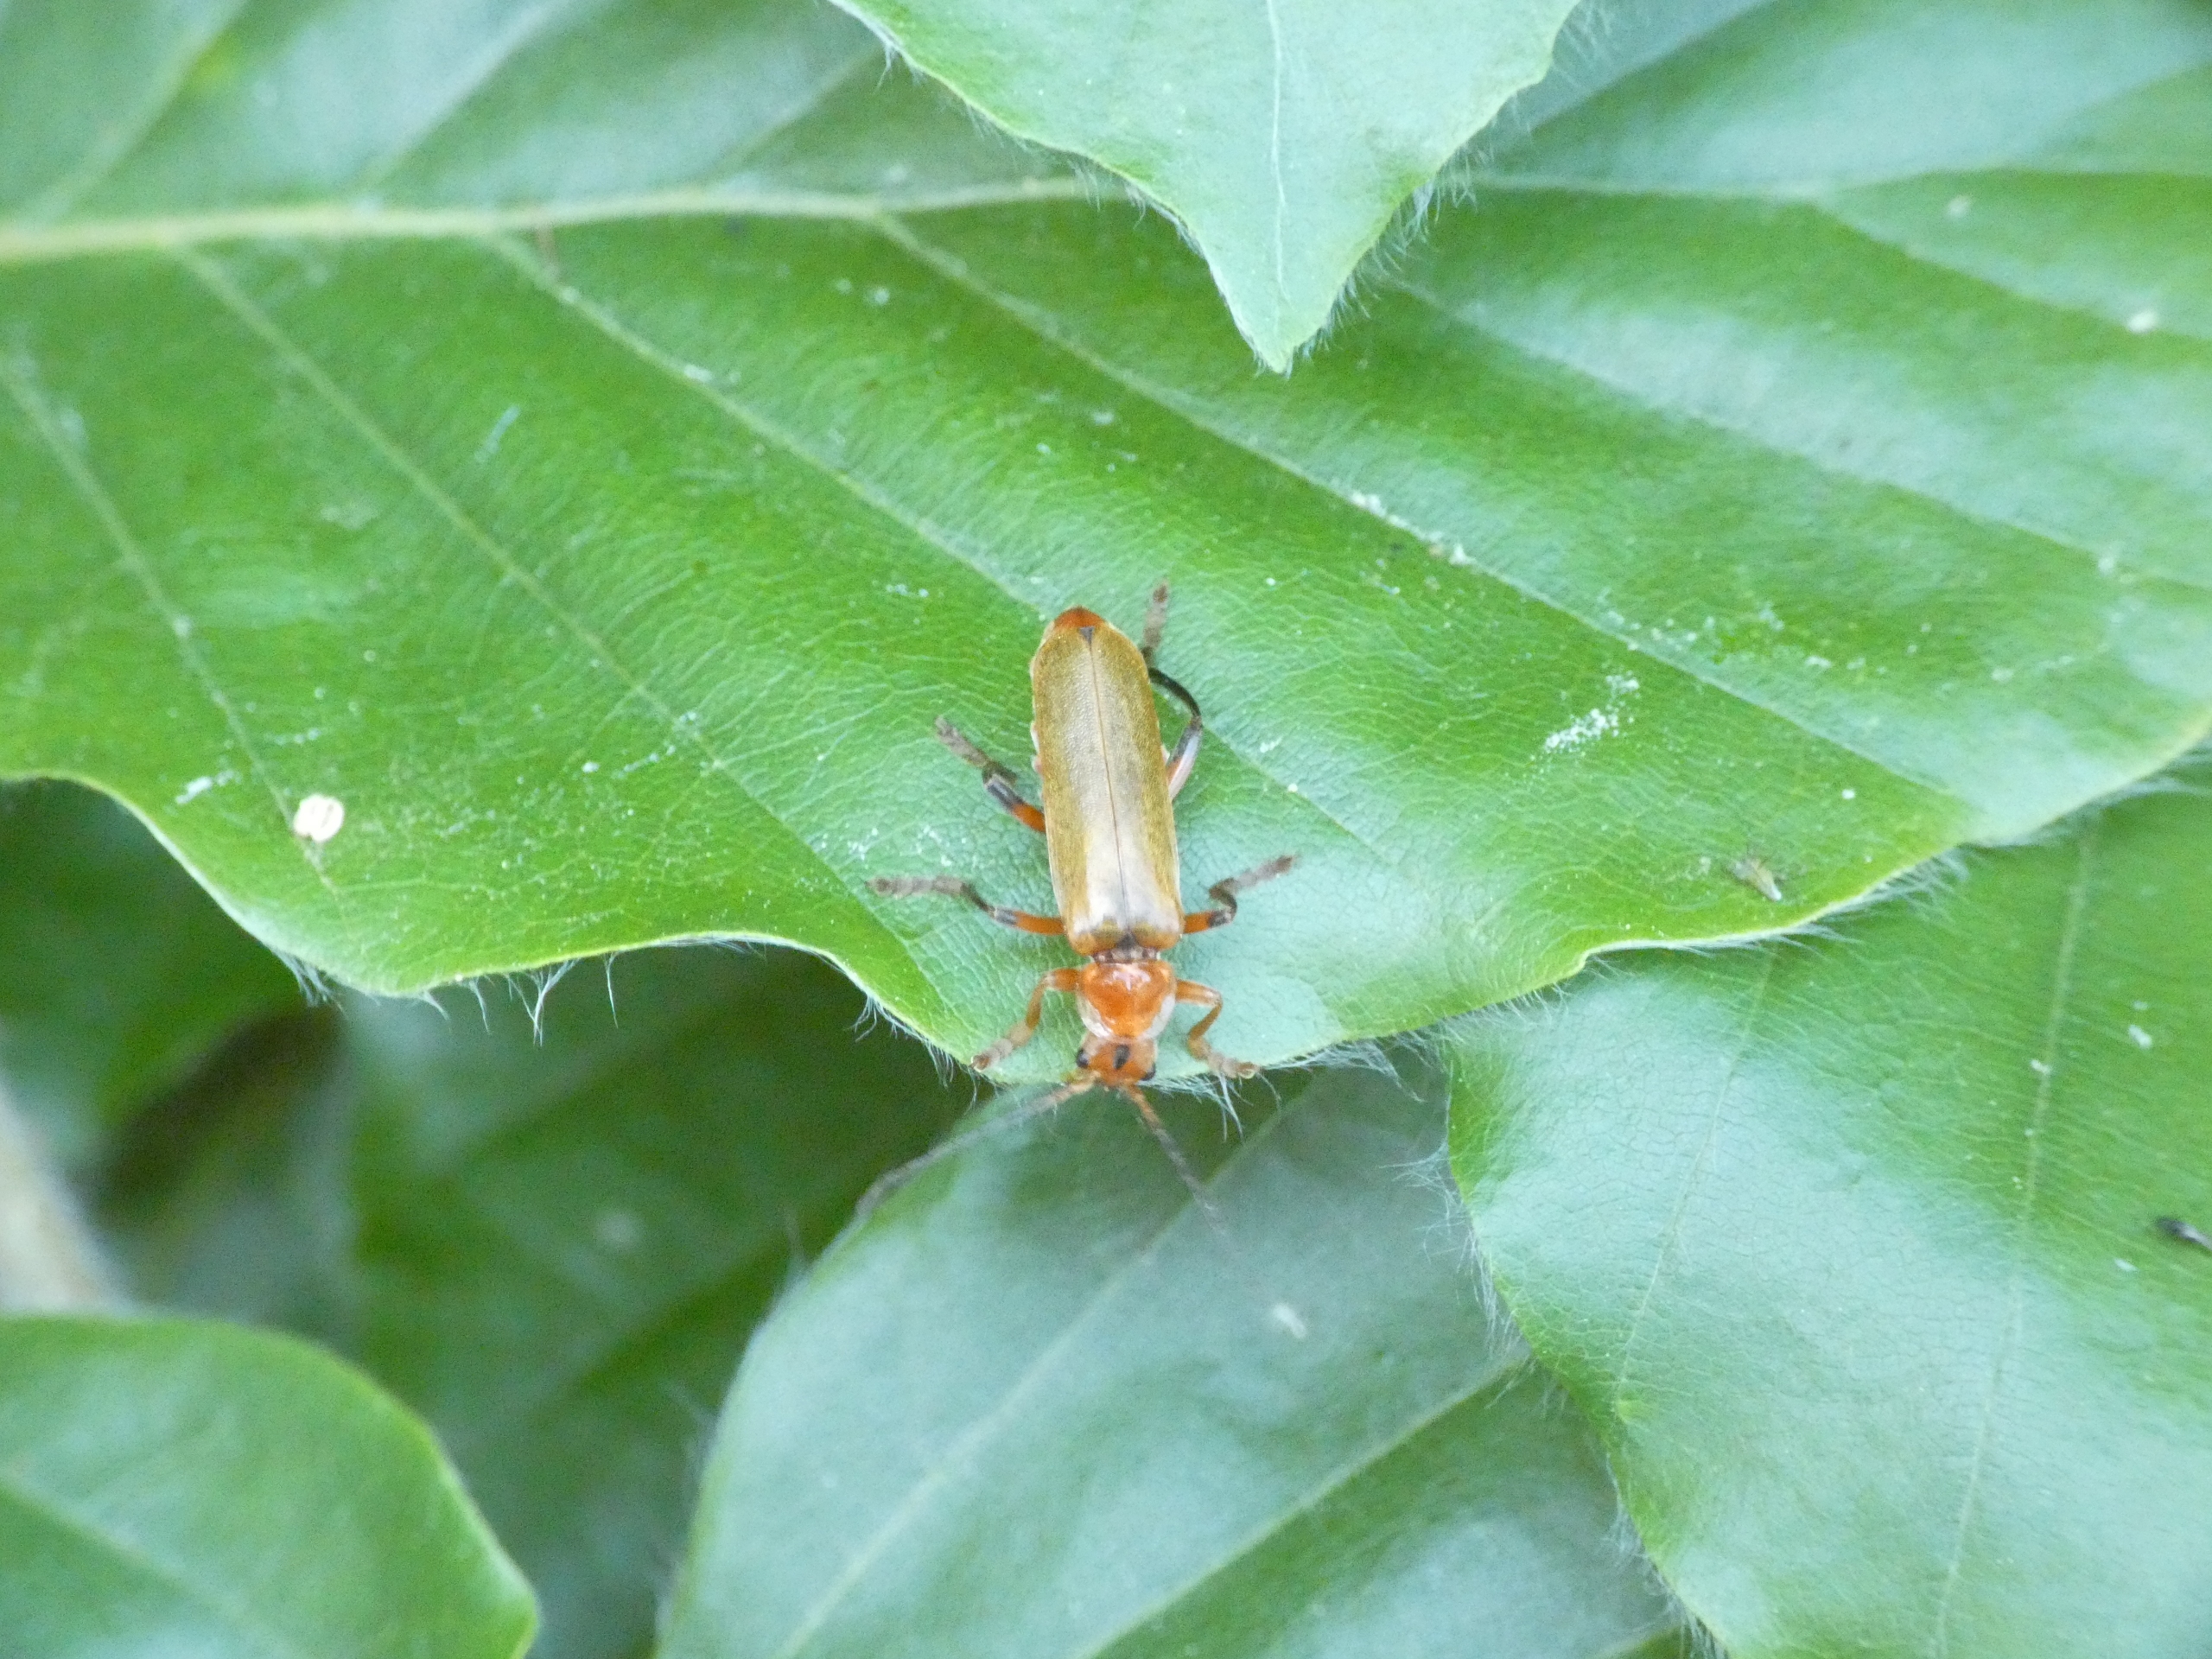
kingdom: Animalia
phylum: Arthropoda
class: Insecta
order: Coleoptera
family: Cantharidae
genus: Cantharis
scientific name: Cantharis livida
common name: Gul blødvinge
